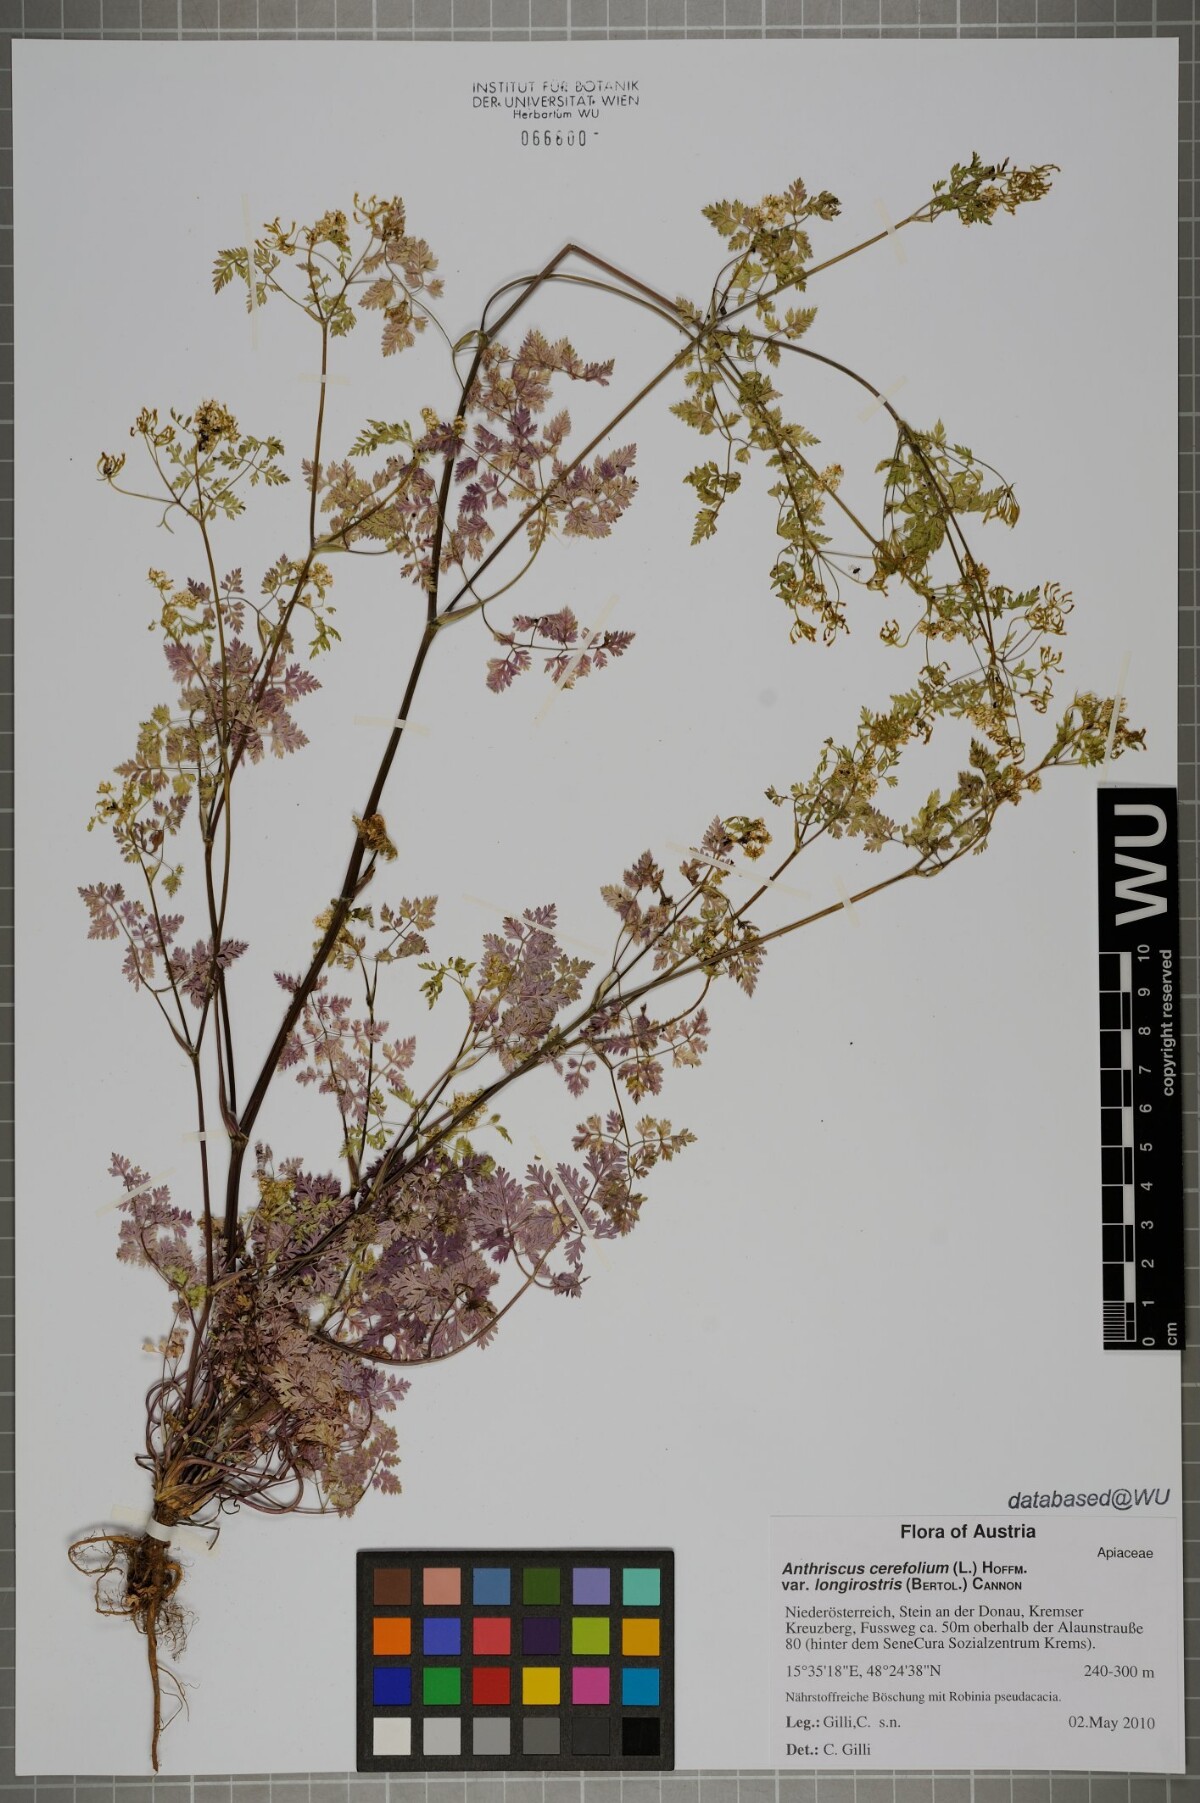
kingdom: Plantae
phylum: Tracheophyta
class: Magnoliopsida
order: Apiales
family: Apiaceae
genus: Anthriscus
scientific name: Anthriscus cerefolium
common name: Garden chervil
